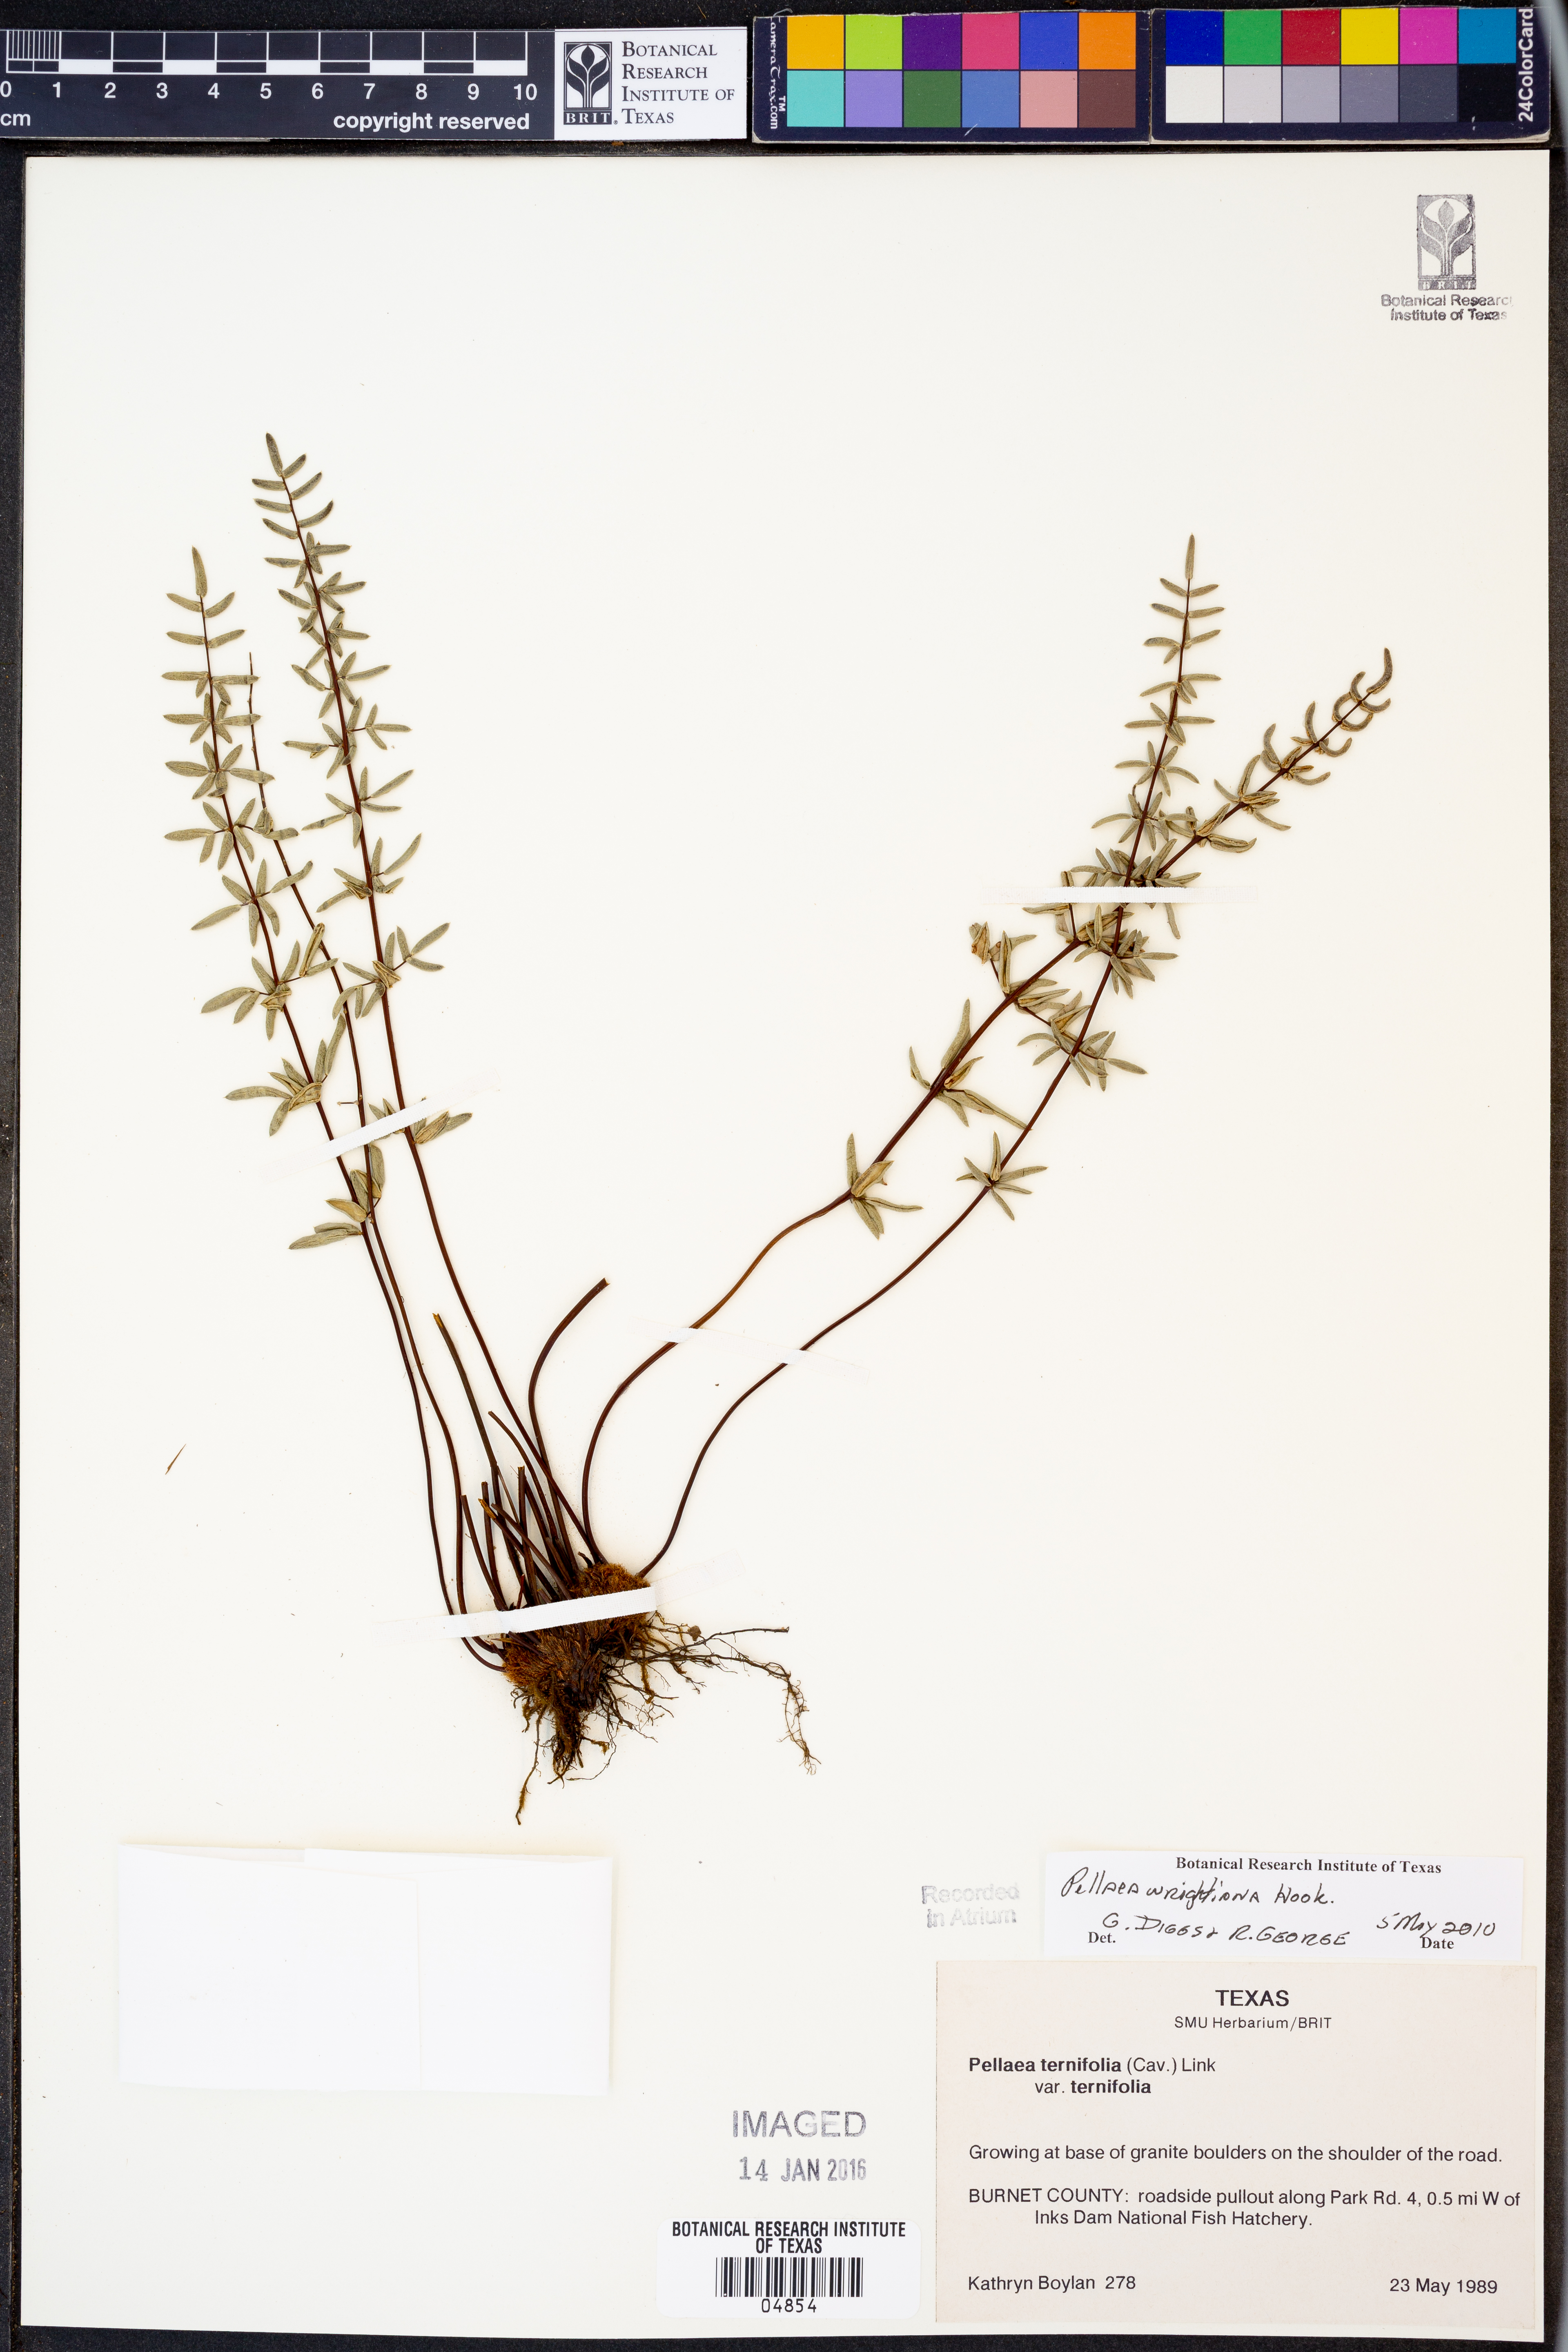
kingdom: Plantae
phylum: Tracheophyta
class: Polypodiopsida
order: Polypodiales
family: Pteridaceae
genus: Pellaea
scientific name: Pellaea wrightiana
